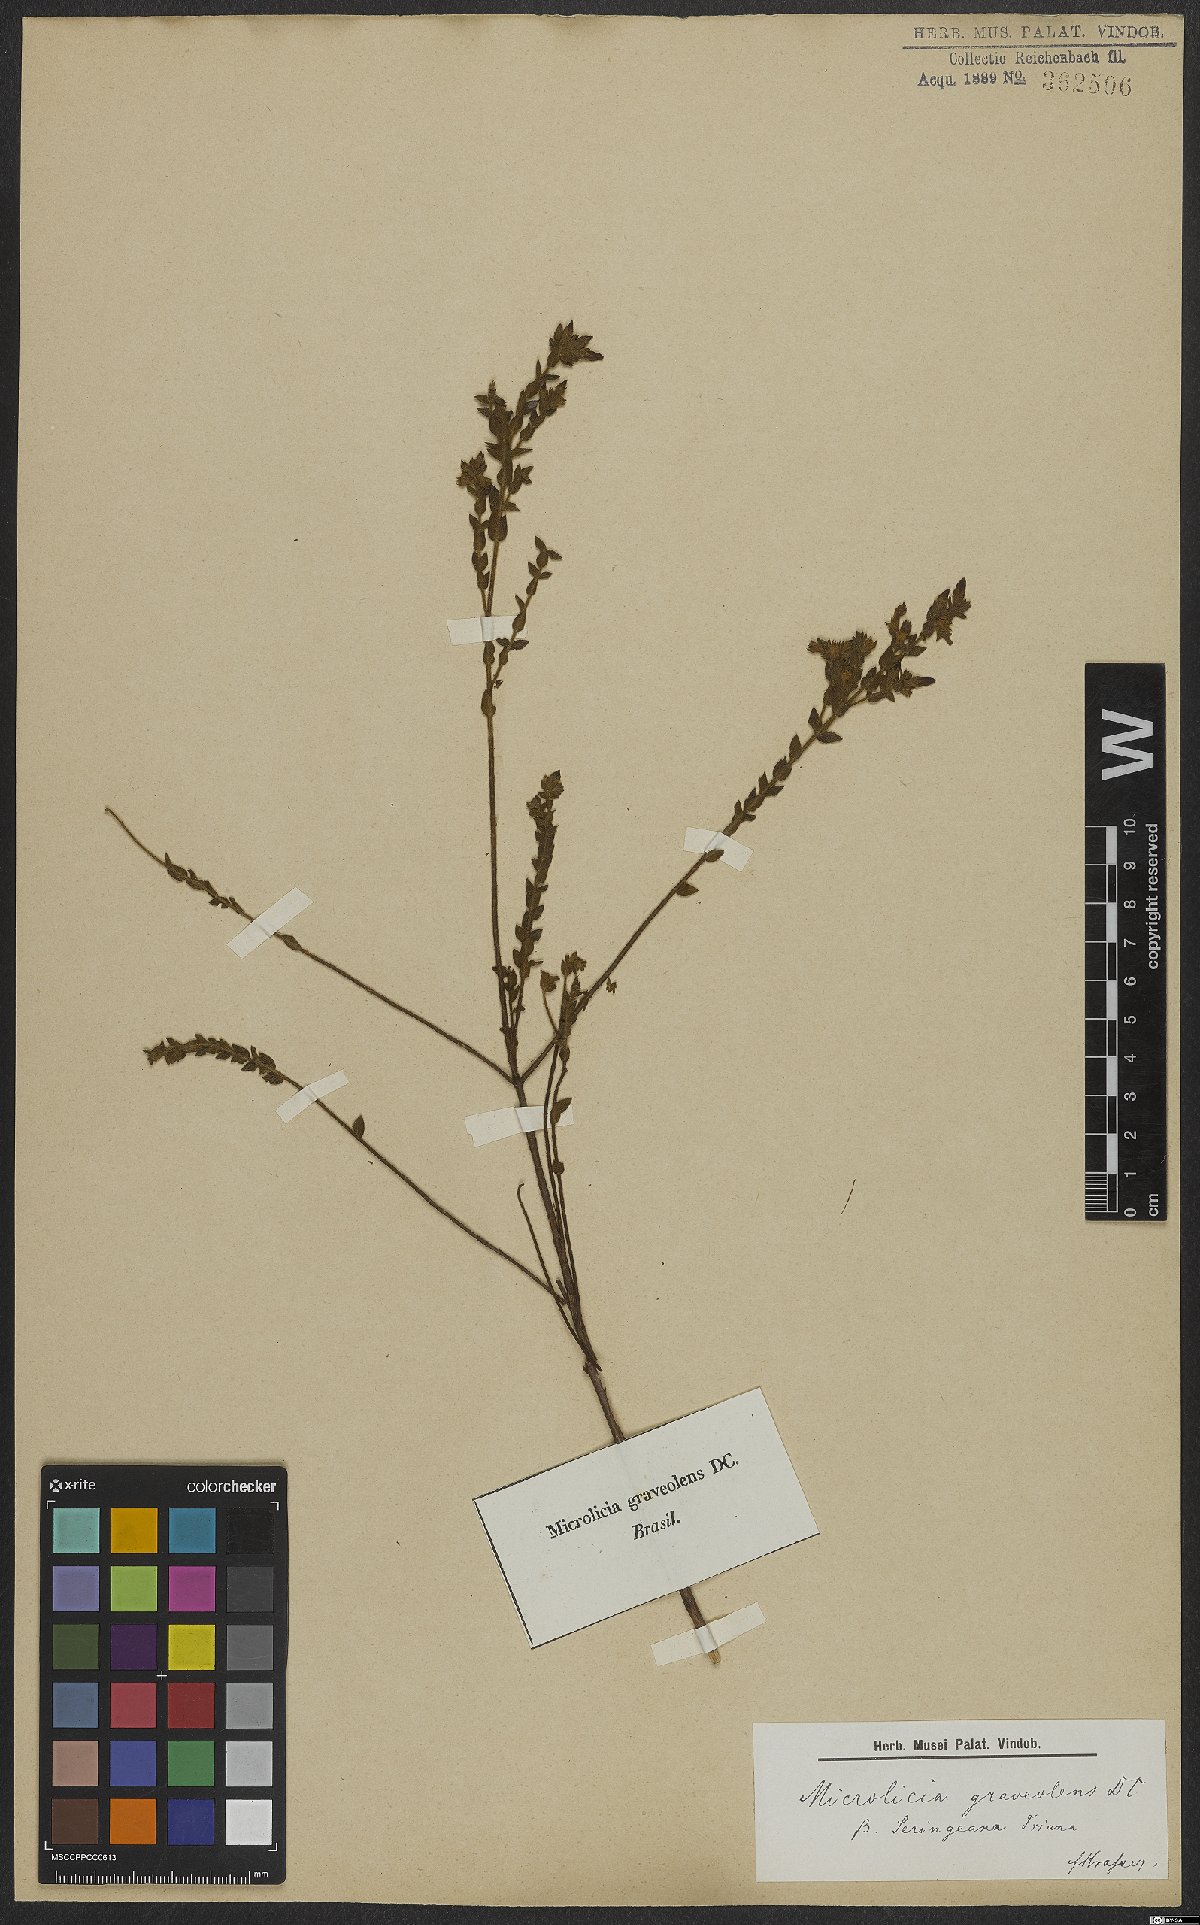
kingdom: Plantae
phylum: Tracheophyta
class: Magnoliopsida
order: Myrtales
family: Melastomataceae
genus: Microlicia
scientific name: Microlicia graveolens
